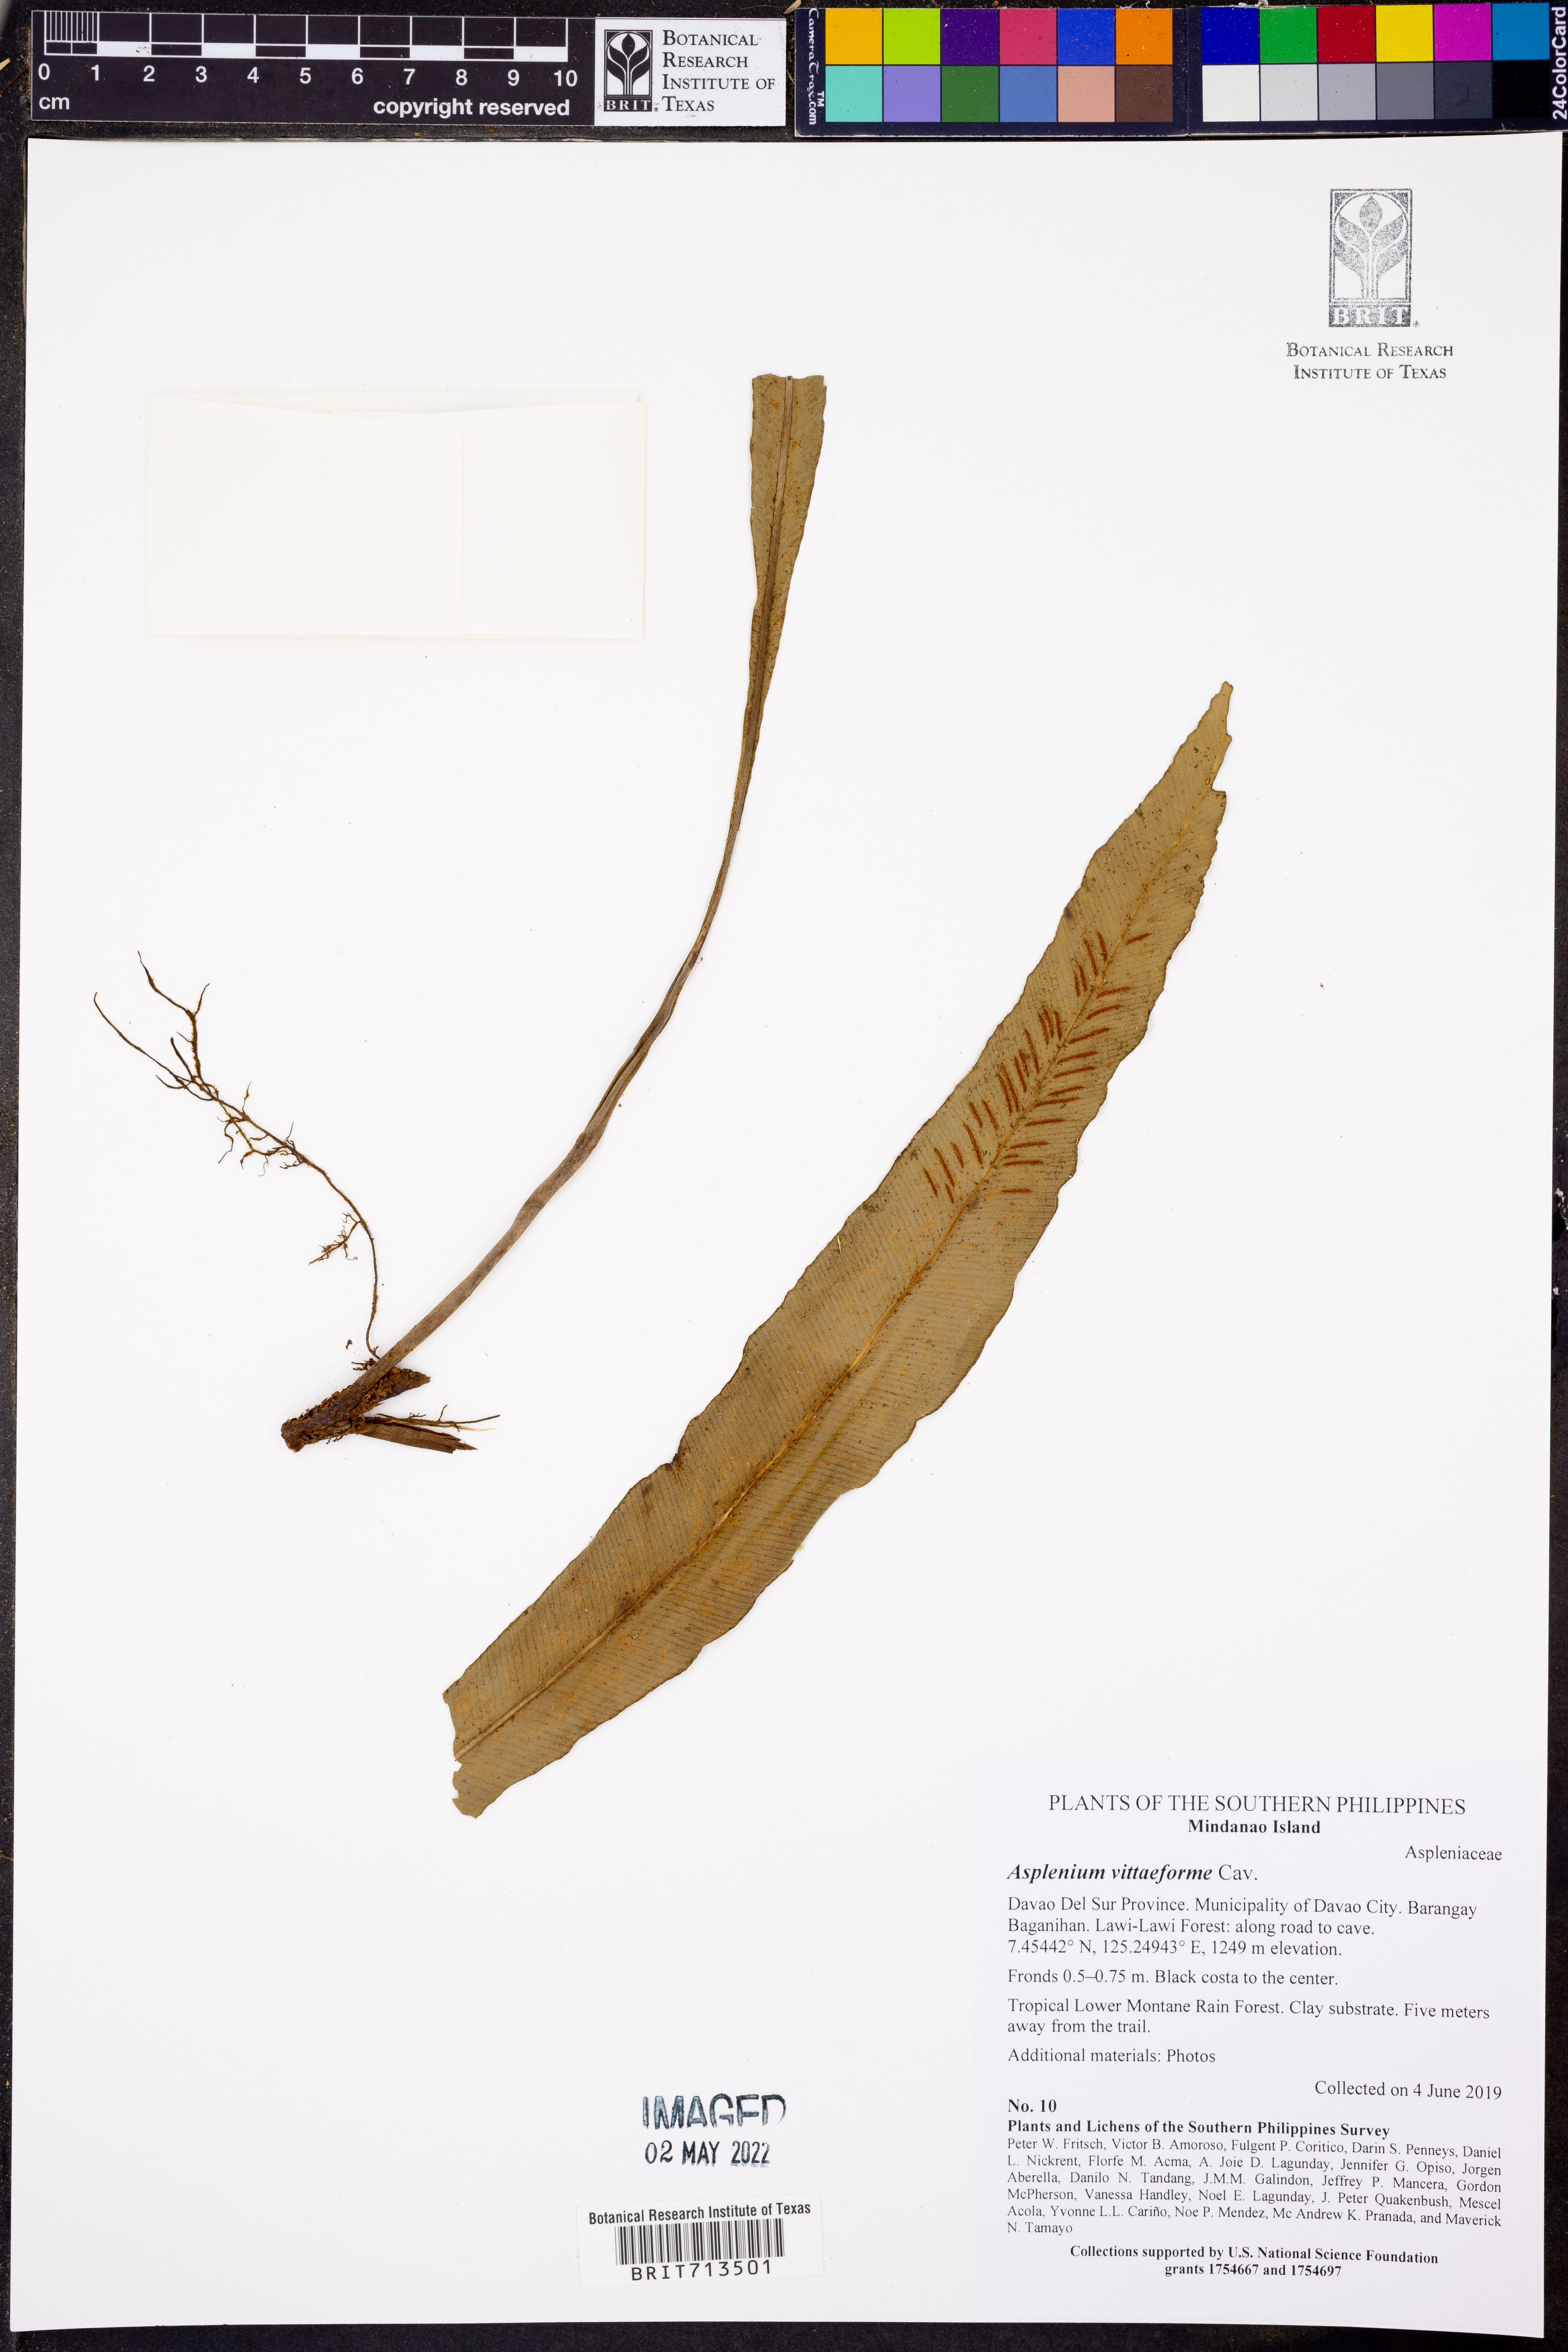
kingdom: Plantae
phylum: Tracheophyta
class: Polypodiopsida
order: Polypodiales
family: Aspleniaceae
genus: Asplenium
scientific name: Asplenium vittaeforme
